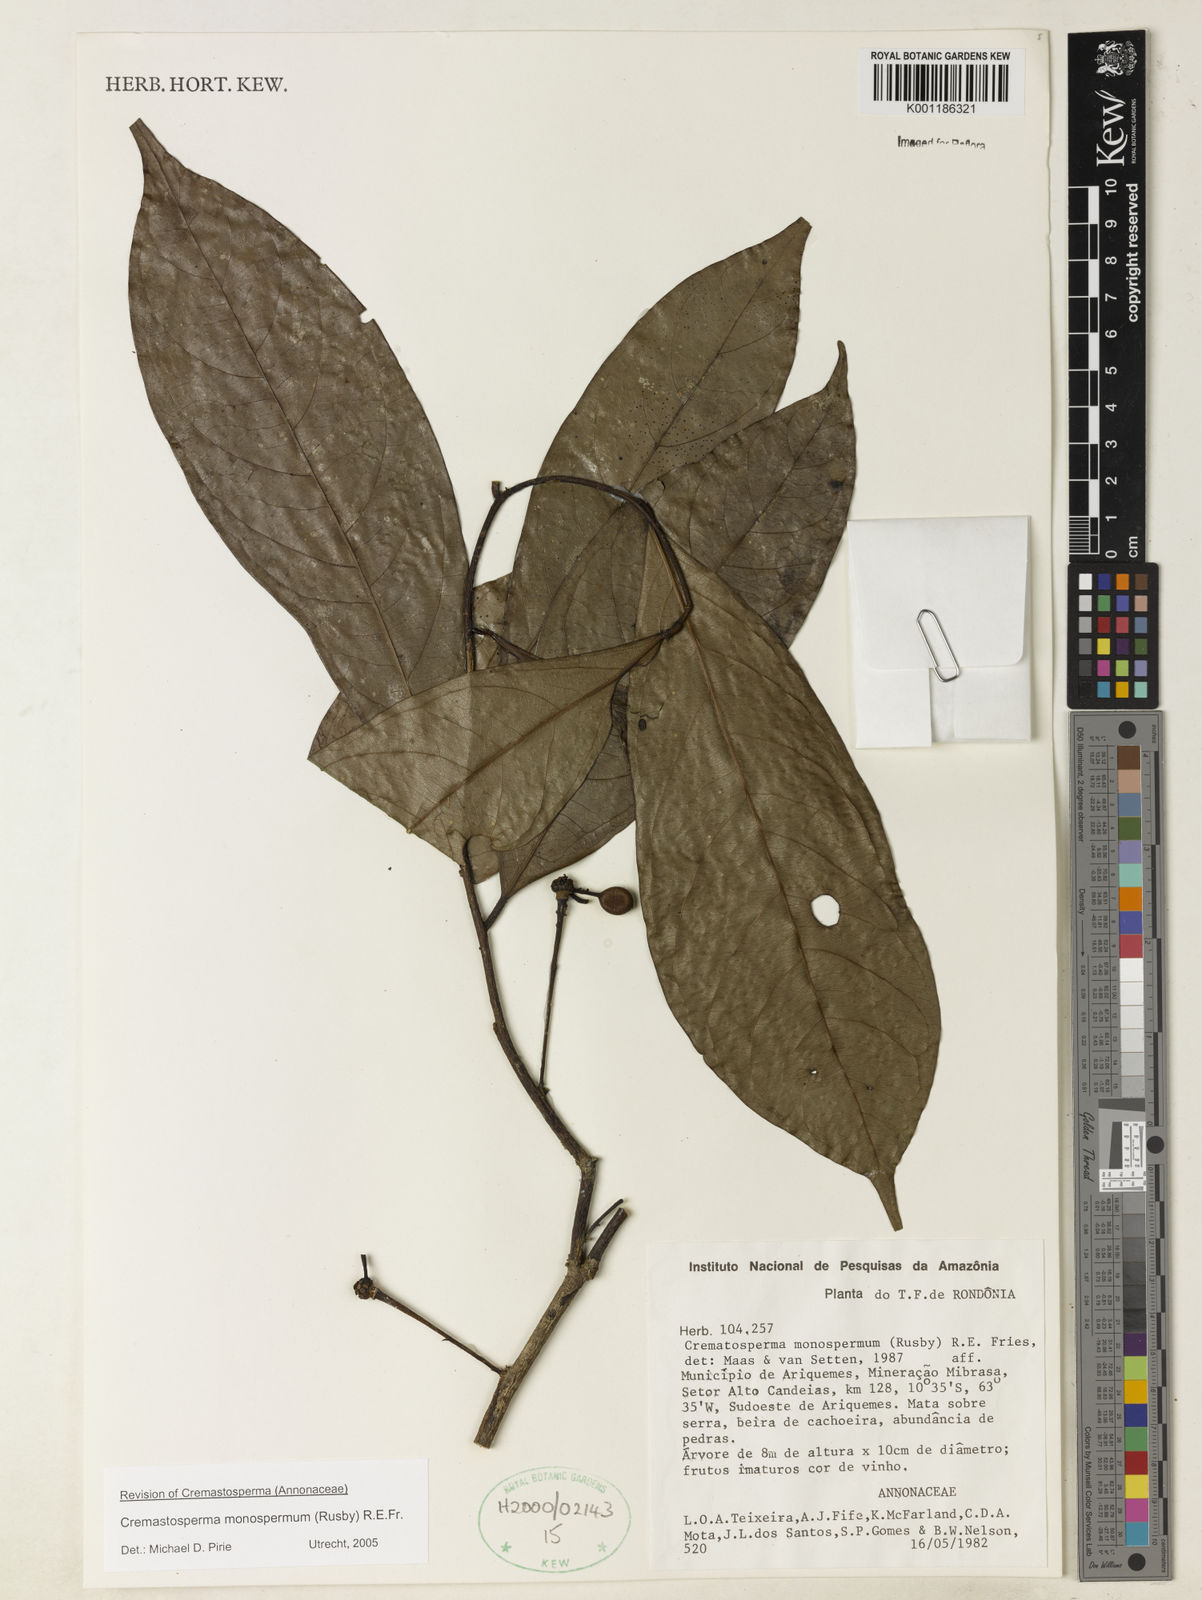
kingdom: Plantae
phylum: Tracheophyta
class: Magnoliopsida
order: Magnoliales
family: Annonaceae
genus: Cremastosperma
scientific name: Cremastosperma monospermum
